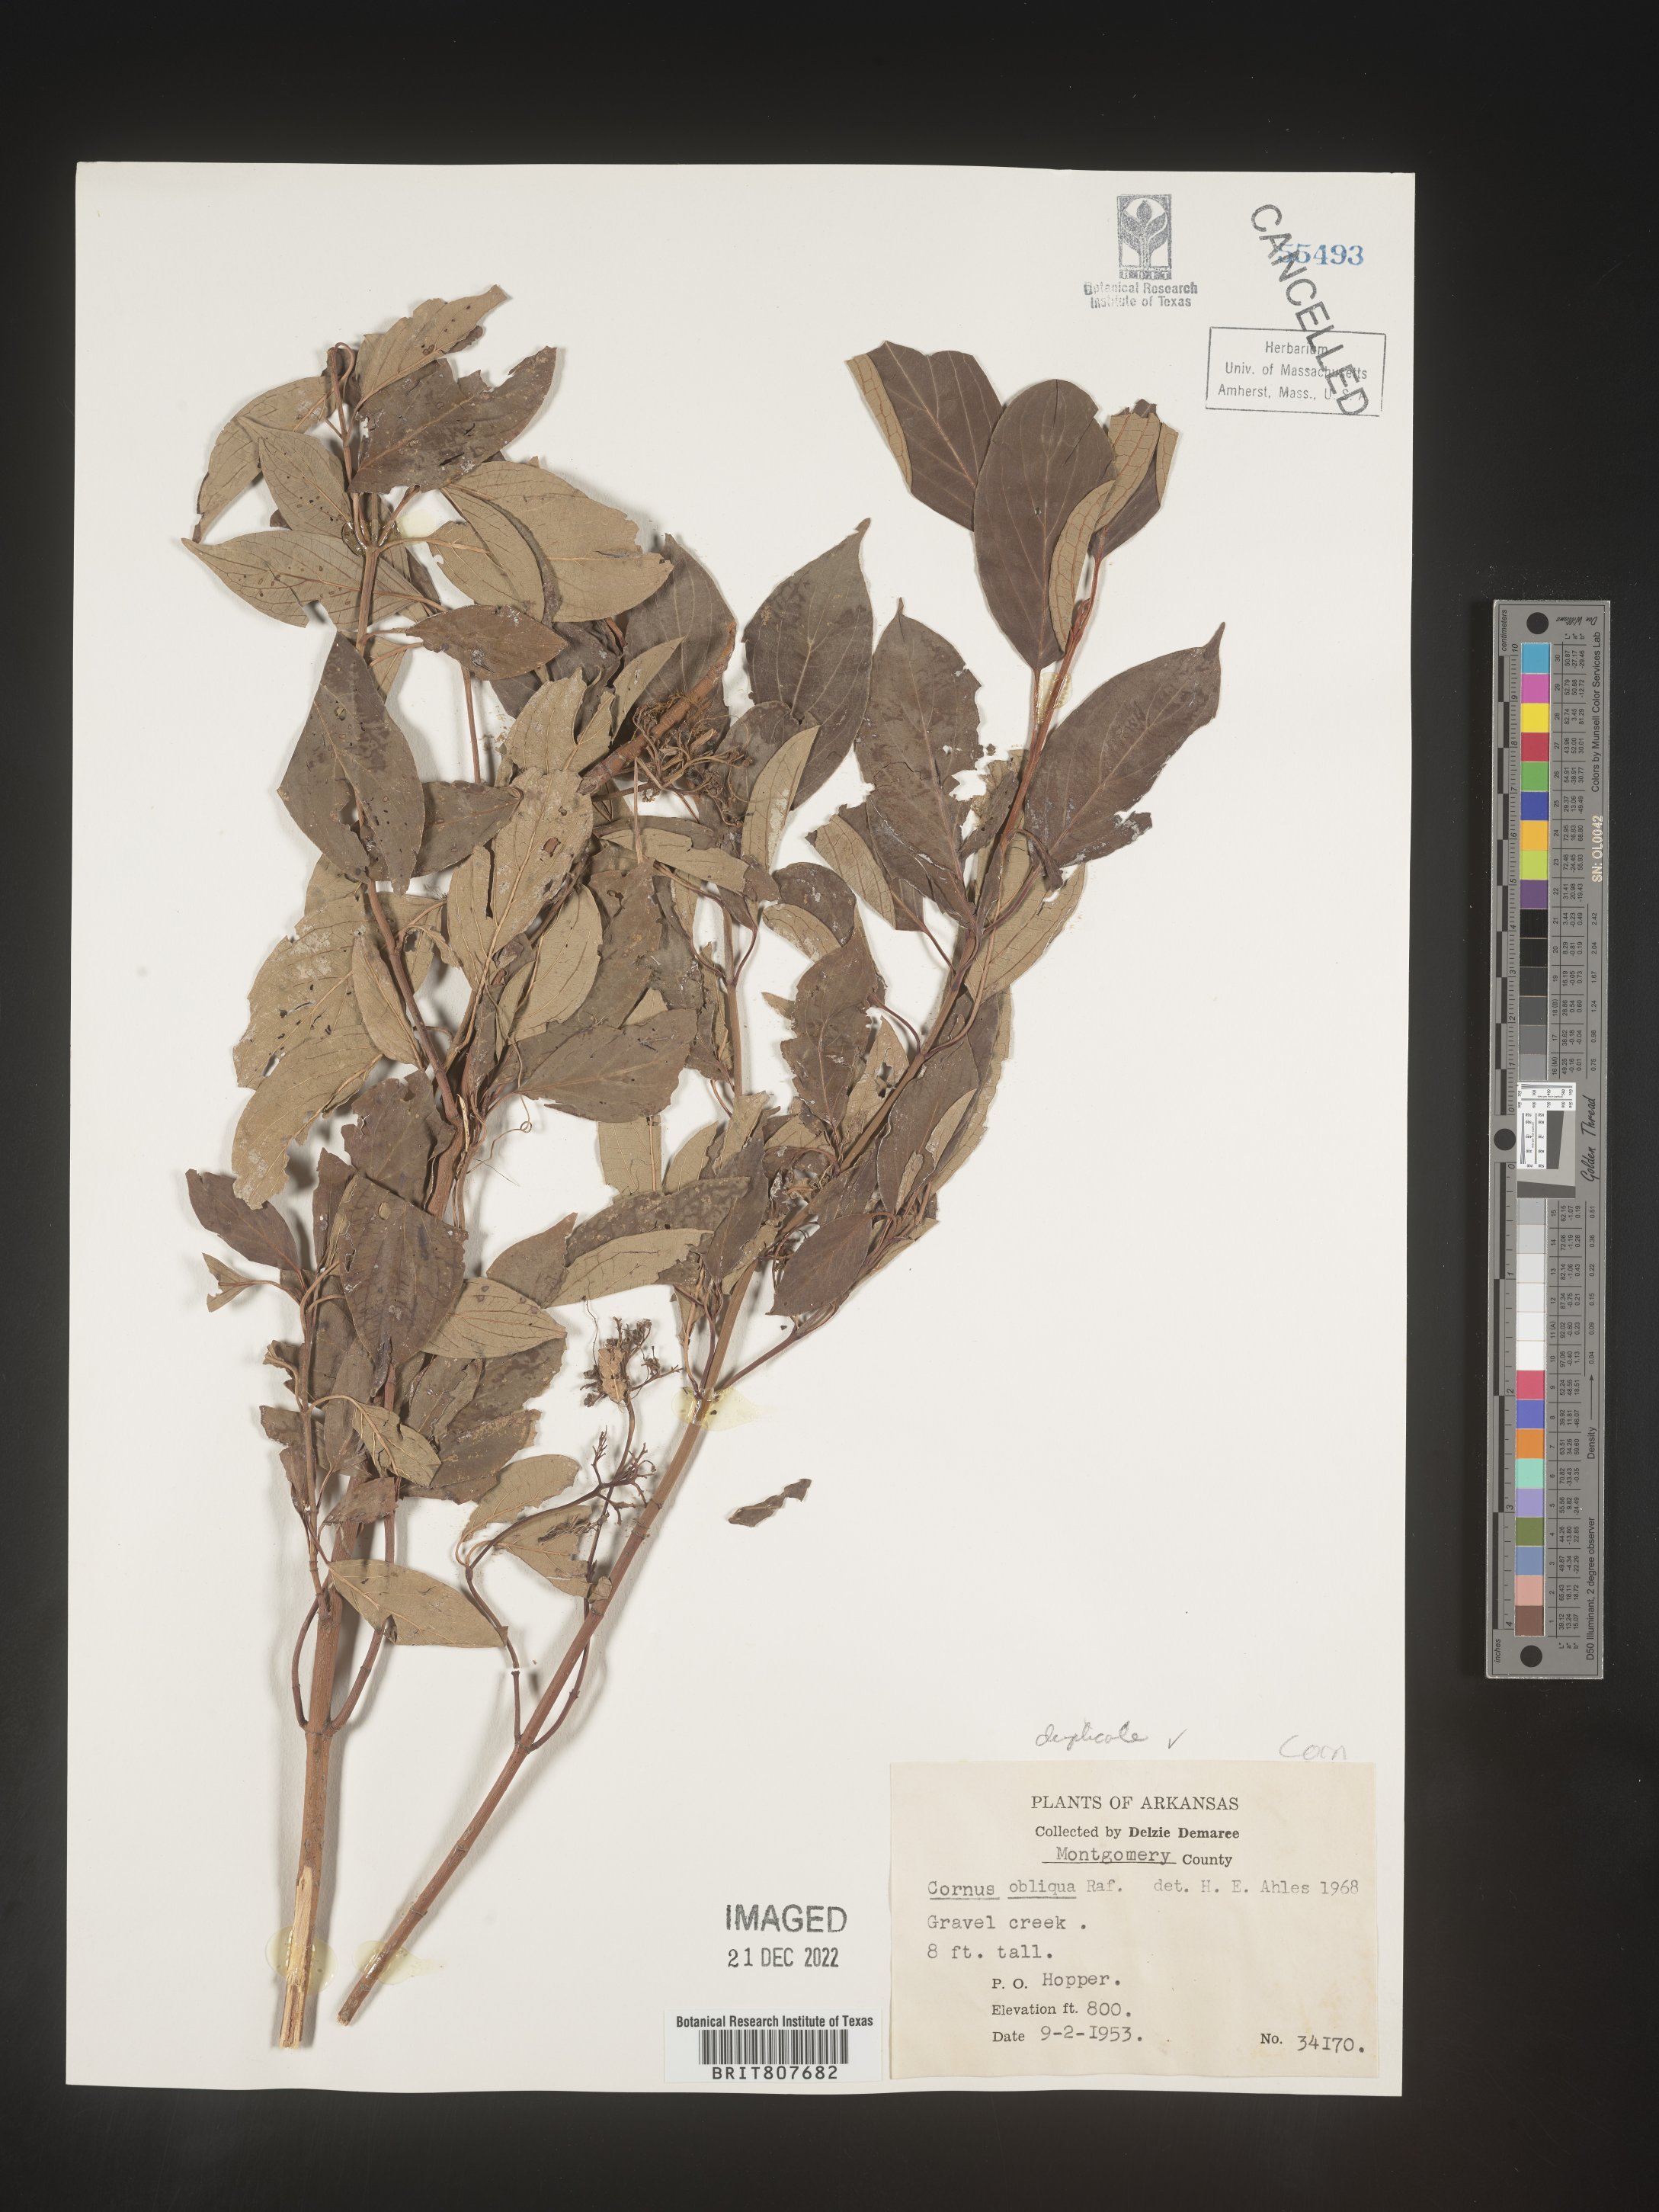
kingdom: Plantae
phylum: Tracheophyta
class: Magnoliopsida
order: Cornales
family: Cornaceae
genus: Cornus
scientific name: Cornus obliqua
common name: Pale dogwood
